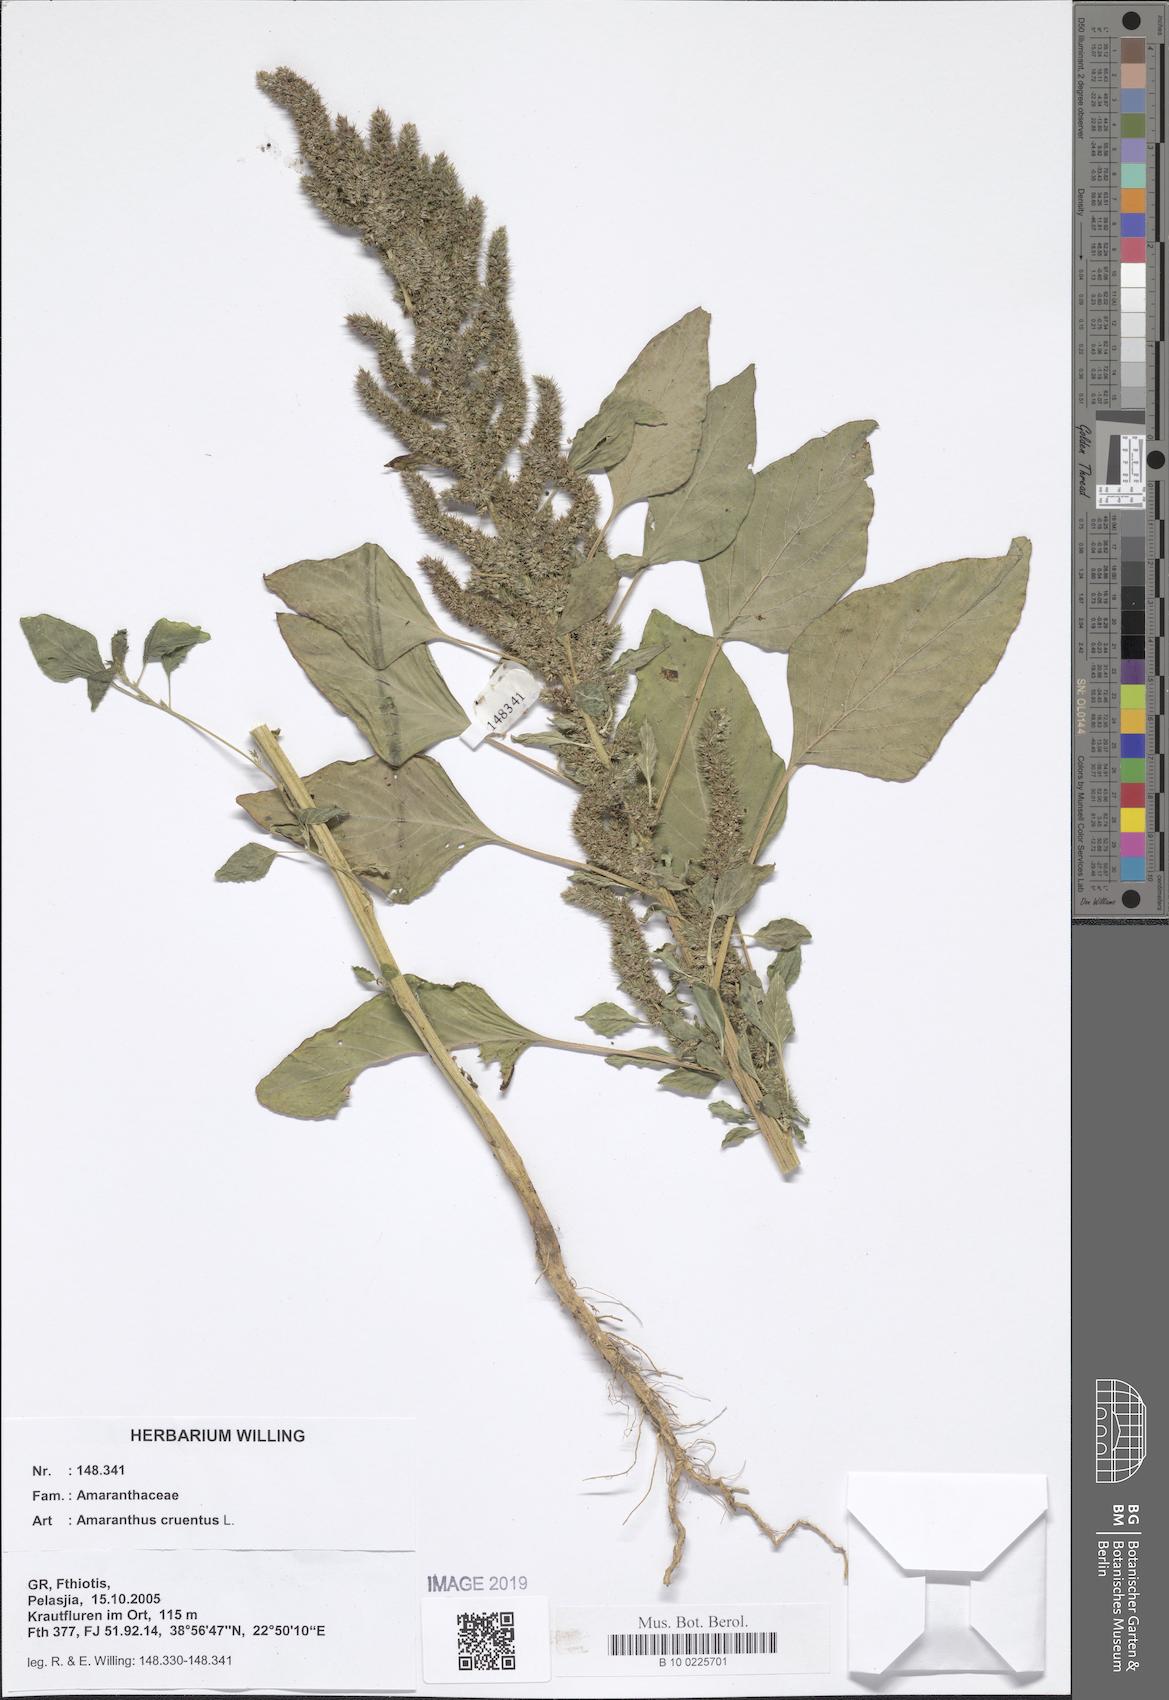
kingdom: Plantae
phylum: Tracheophyta
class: Magnoliopsida
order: Caryophyllales
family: Amaranthaceae
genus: Amaranthus
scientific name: Amaranthus cruentus
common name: Purple amaranth
